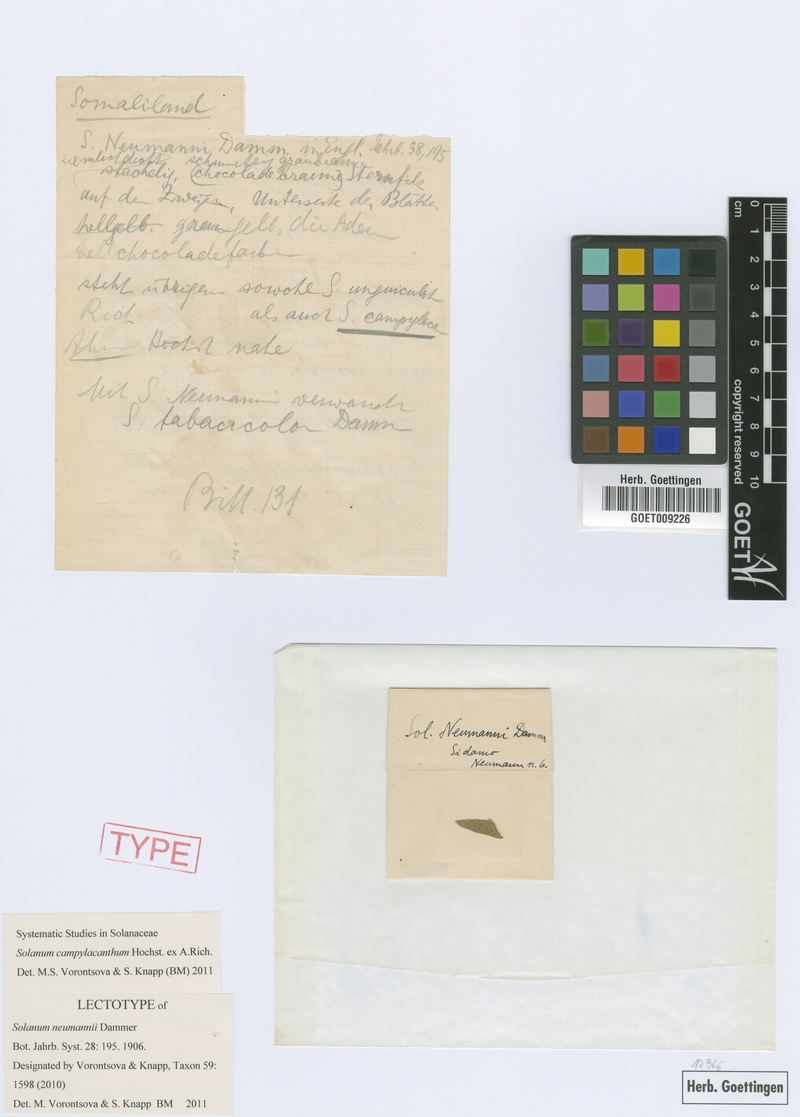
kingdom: Plantae
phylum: Tracheophyta
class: Magnoliopsida
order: Solanales
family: Solanaceae
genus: Solanum
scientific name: Solanum campylacanthum
